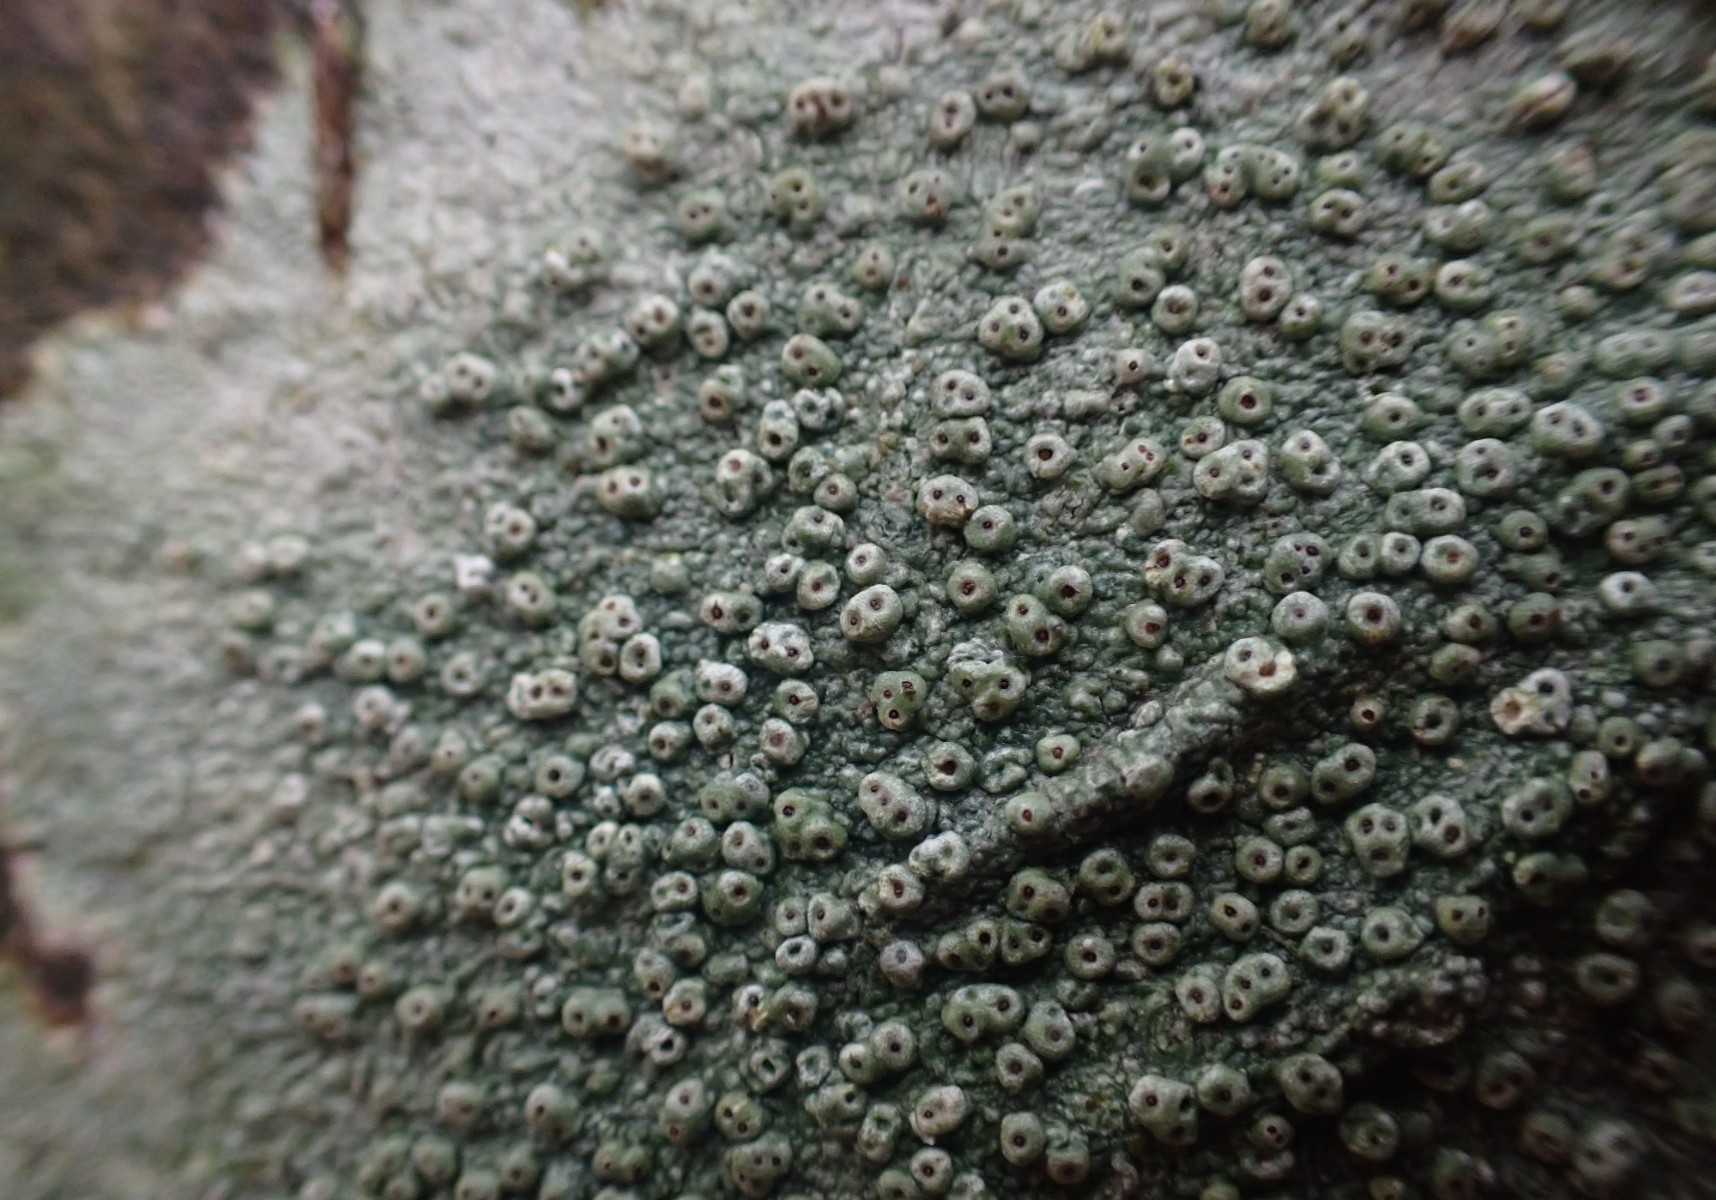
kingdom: Fungi
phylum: Ascomycota
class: Lecanoromycetes
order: Pertusariales
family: Pertusariaceae
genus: Pertusaria
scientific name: Pertusaria pertusa
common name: almindelig prikvortelav
